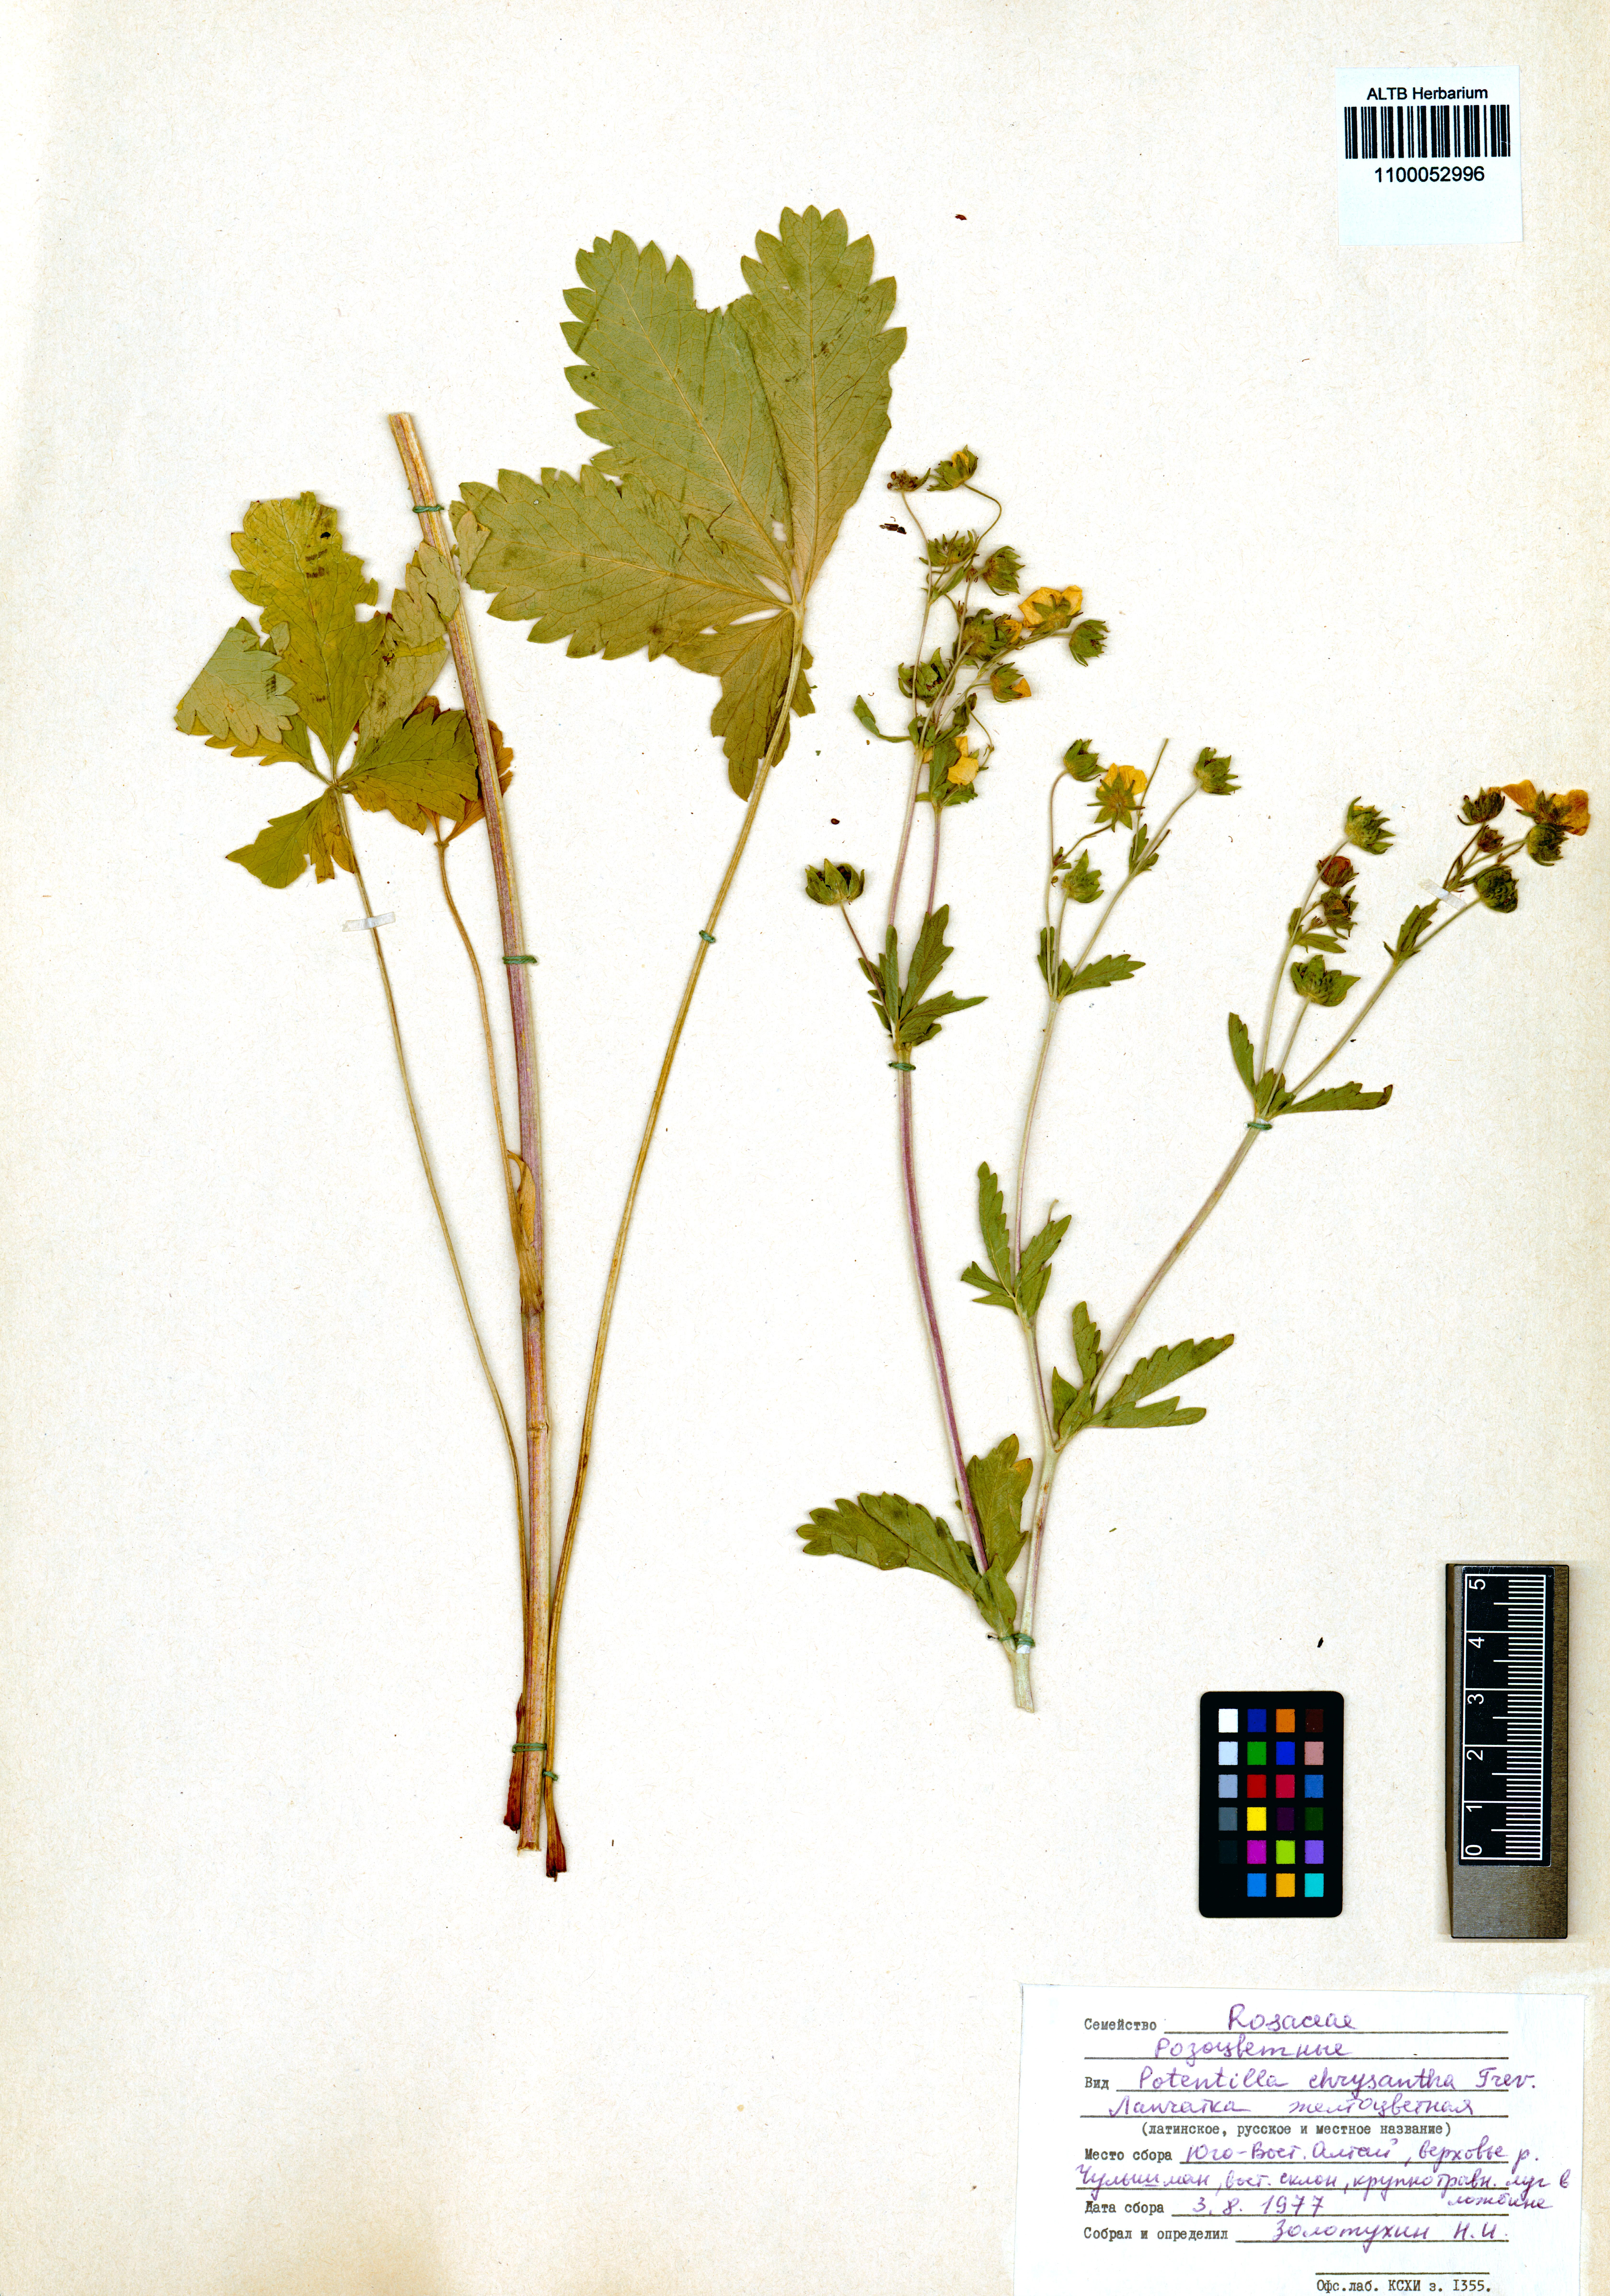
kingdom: Plantae
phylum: Tracheophyta
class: Magnoliopsida
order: Rosales
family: Rosaceae
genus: Potentilla
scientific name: Potentilla chrysantha
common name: Thuringian cinquefoil
